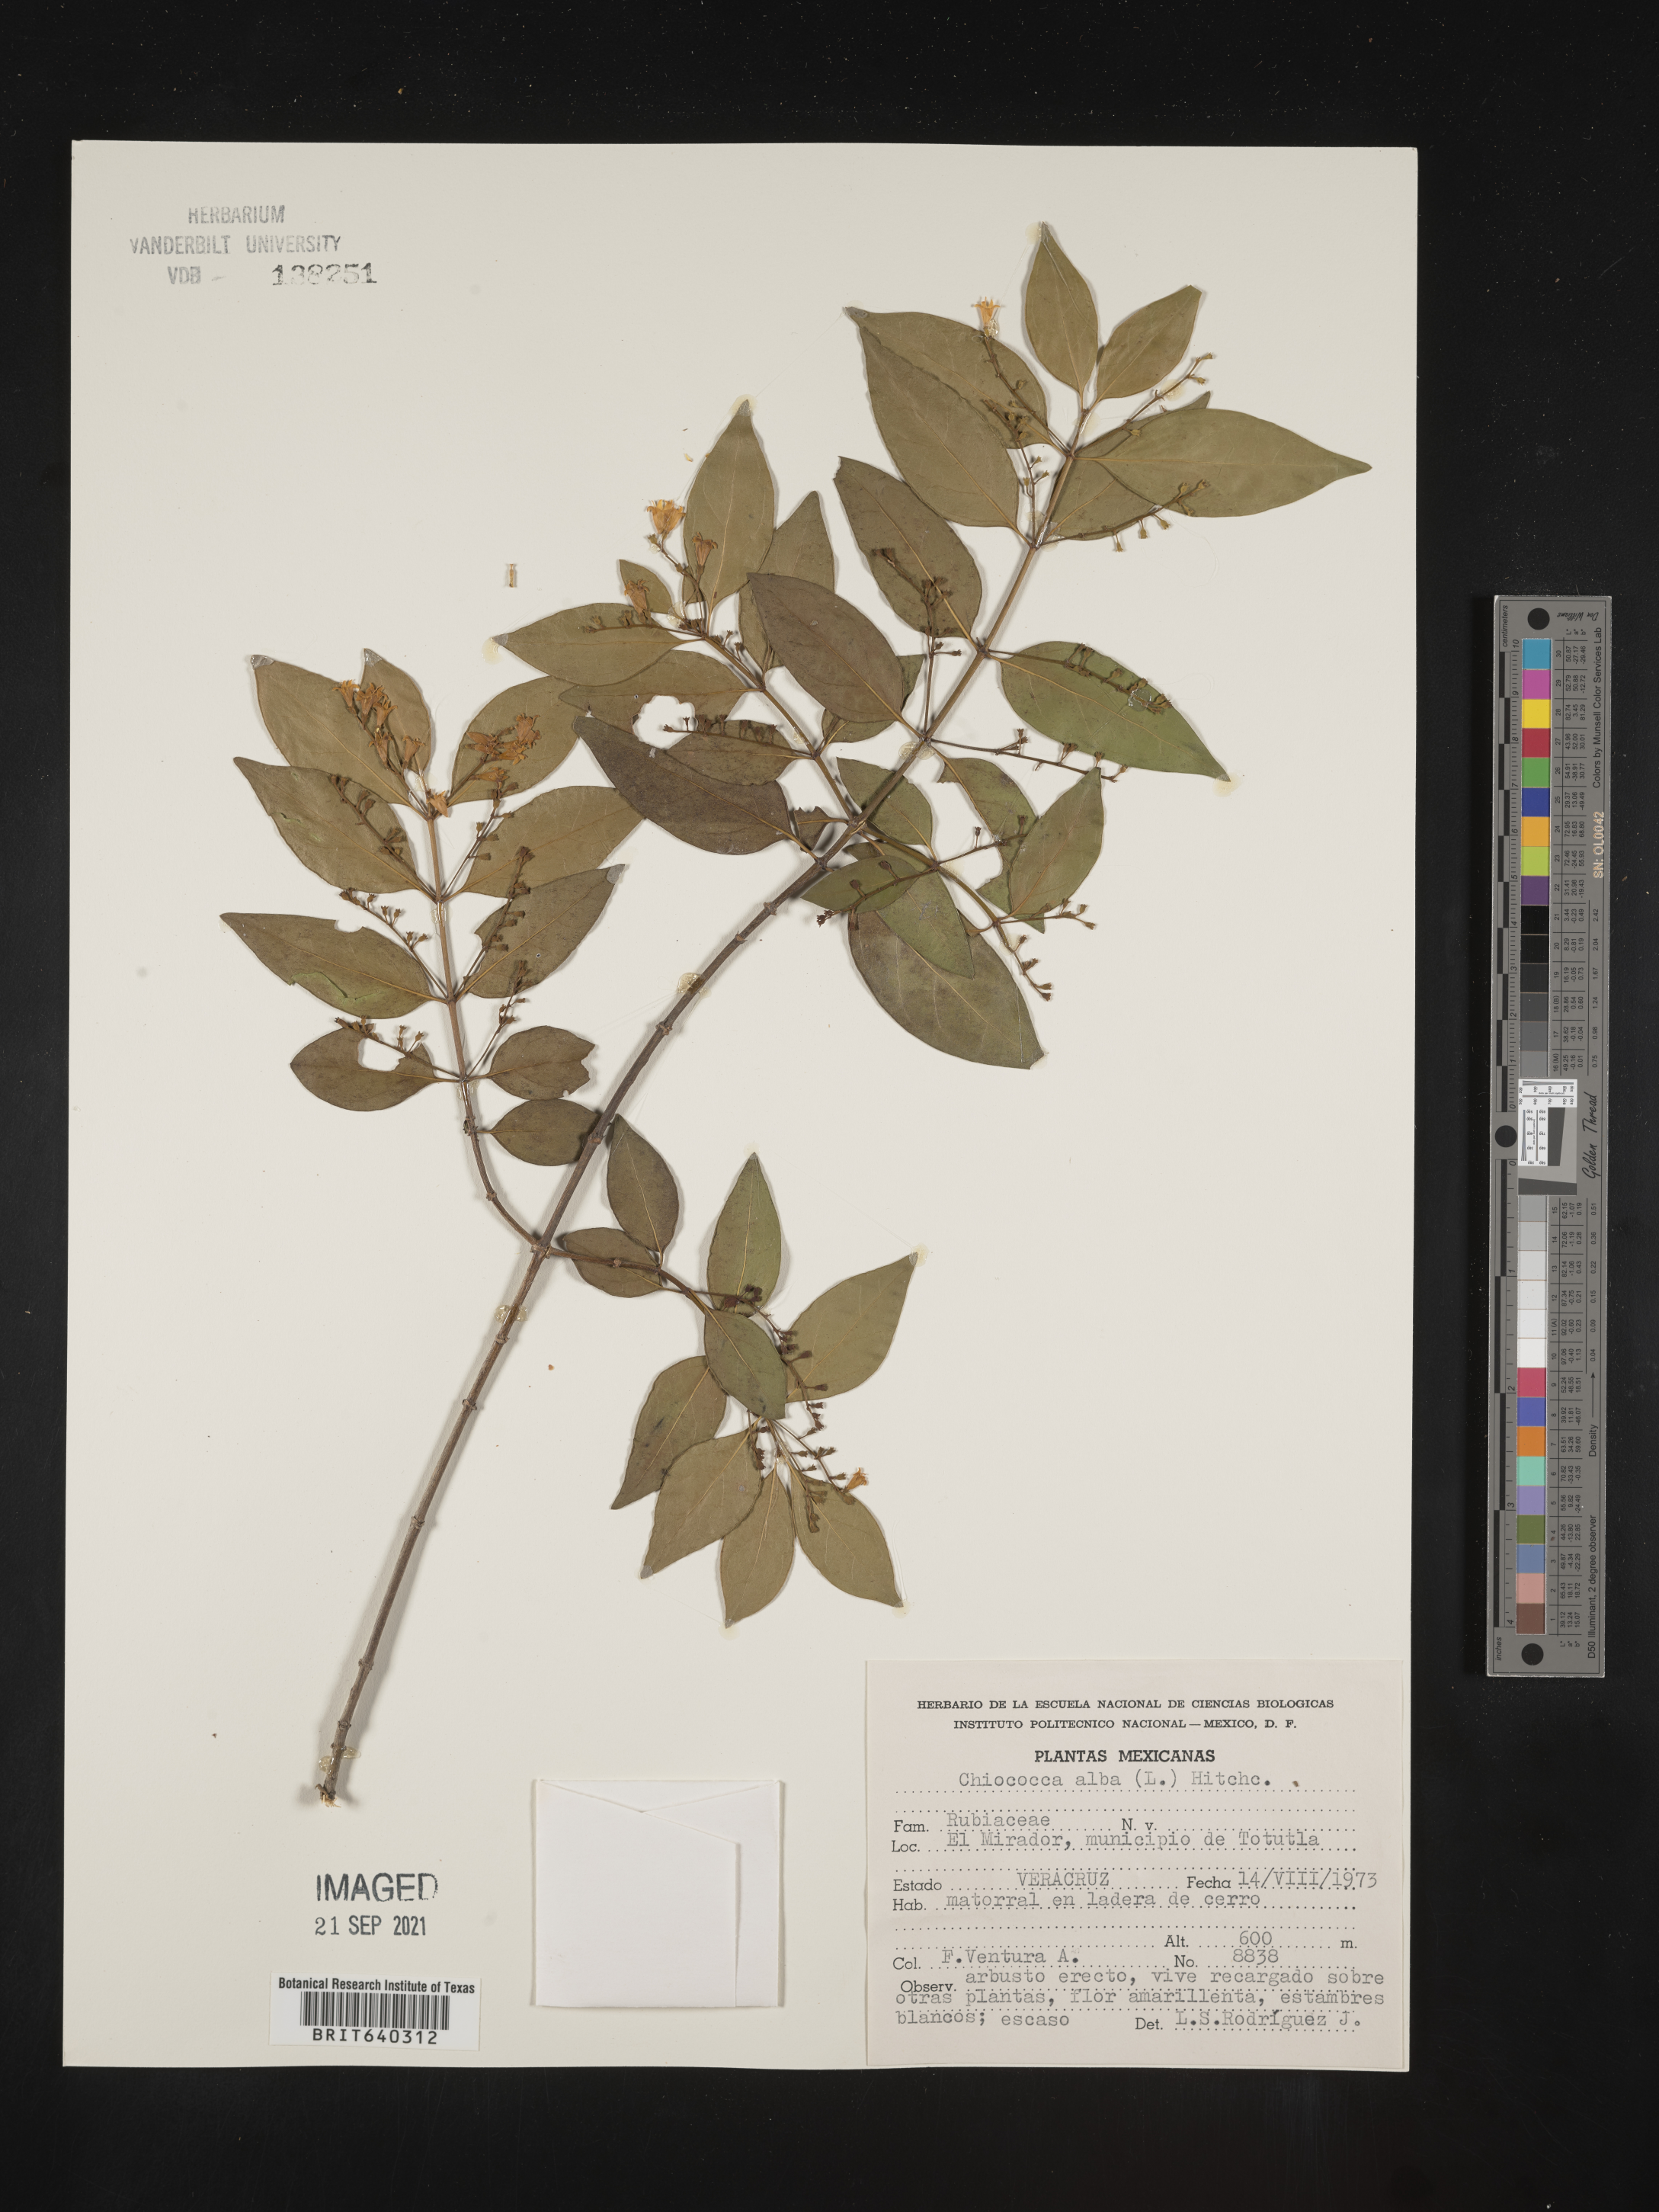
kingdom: Plantae
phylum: Tracheophyta
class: Magnoliopsida
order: Gentianales
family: Rubiaceae
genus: Chiococca
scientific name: Chiococca
